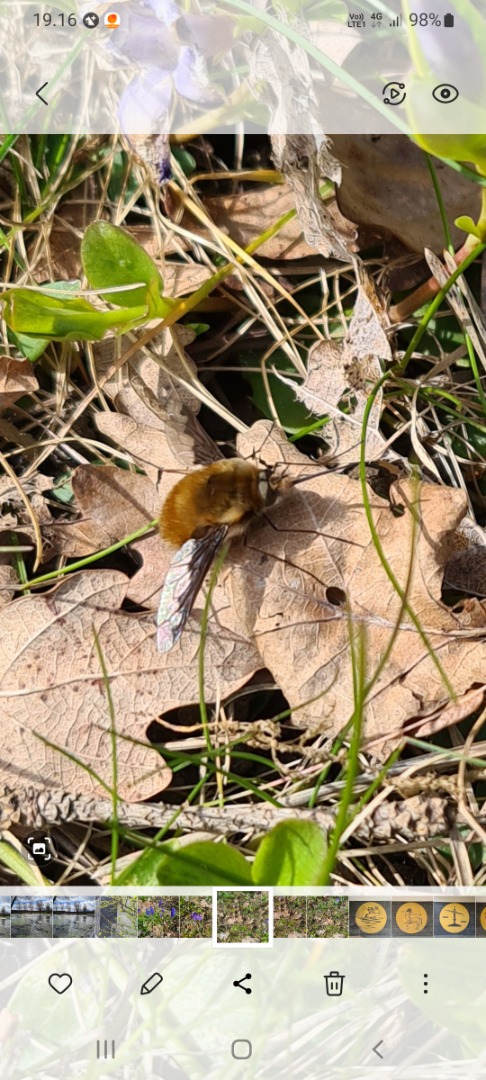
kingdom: Animalia
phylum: Arthropoda
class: Insecta
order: Diptera
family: Bombyliidae
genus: Bombylius
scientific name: Bombylius major
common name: Stor humleflue
